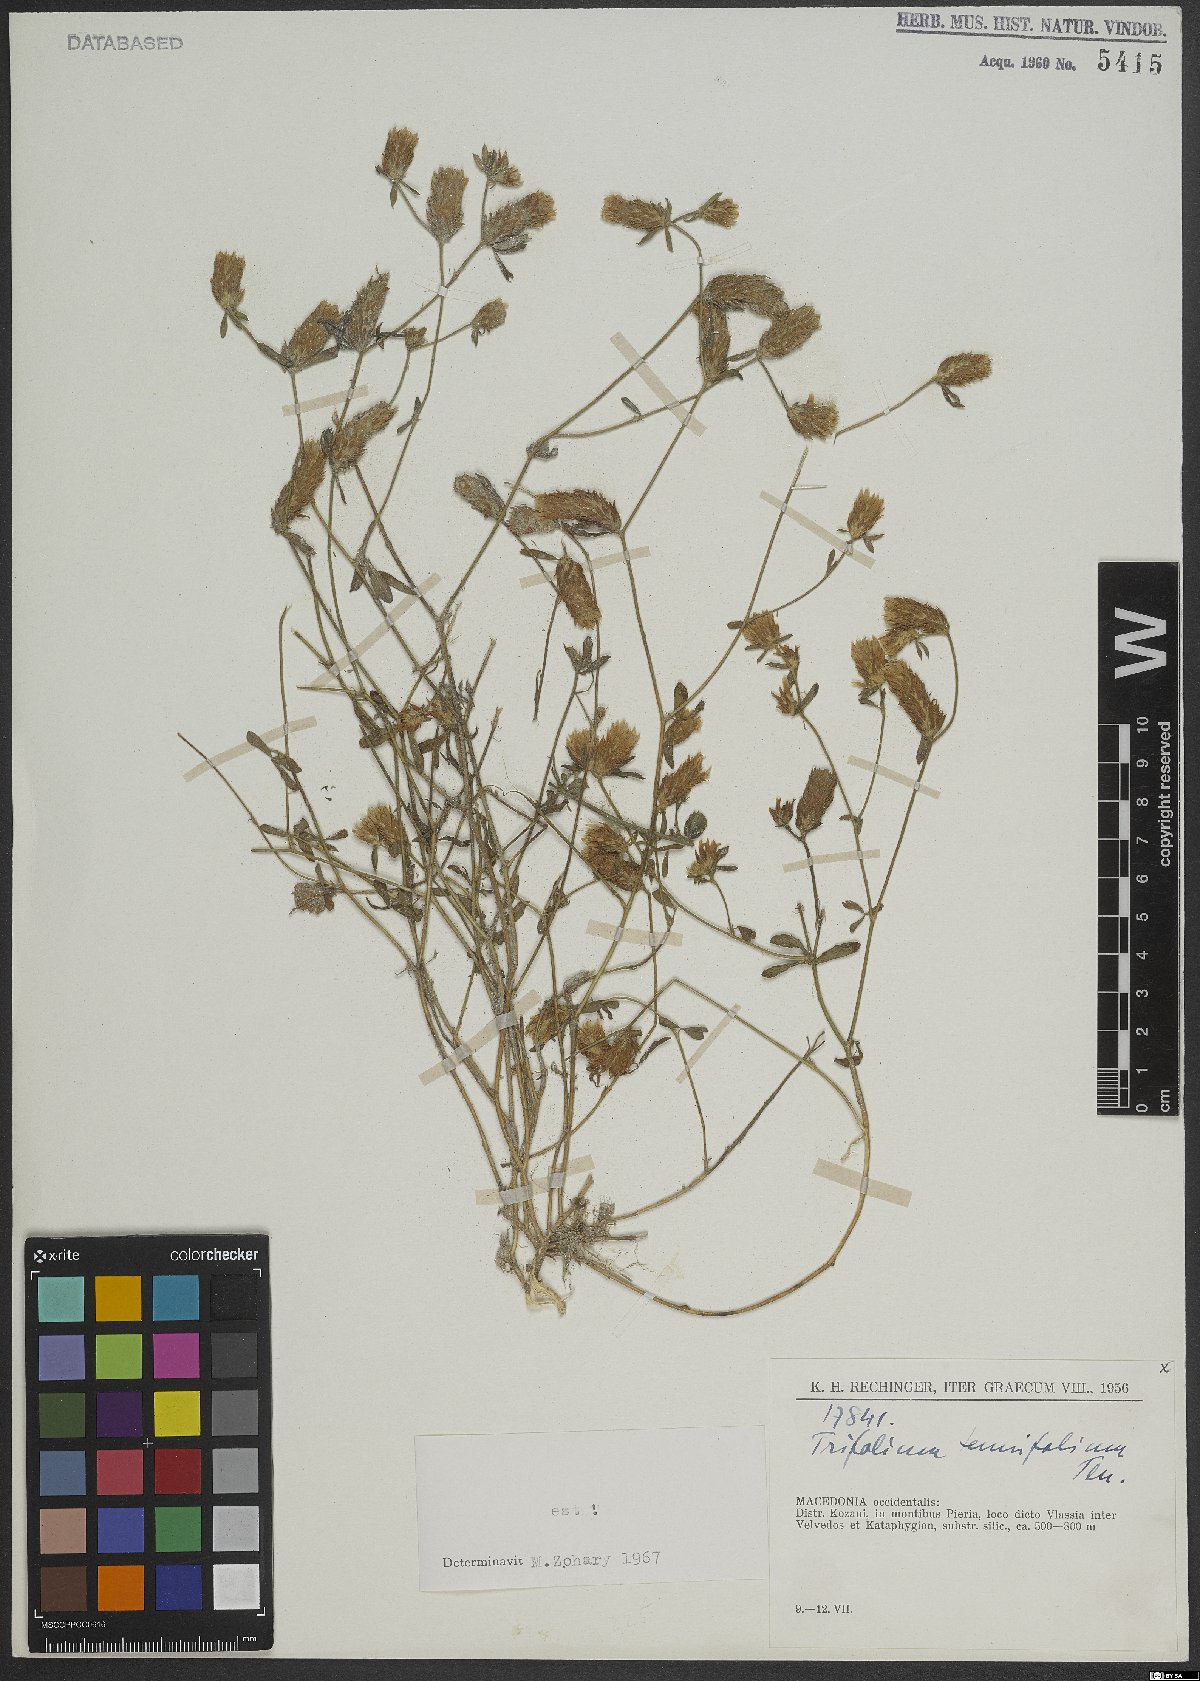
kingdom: Plantae
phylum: Tracheophyta
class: Magnoliopsida
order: Fabales
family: Fabaceae
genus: Trifolium
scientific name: Trifolium tenuifolium
